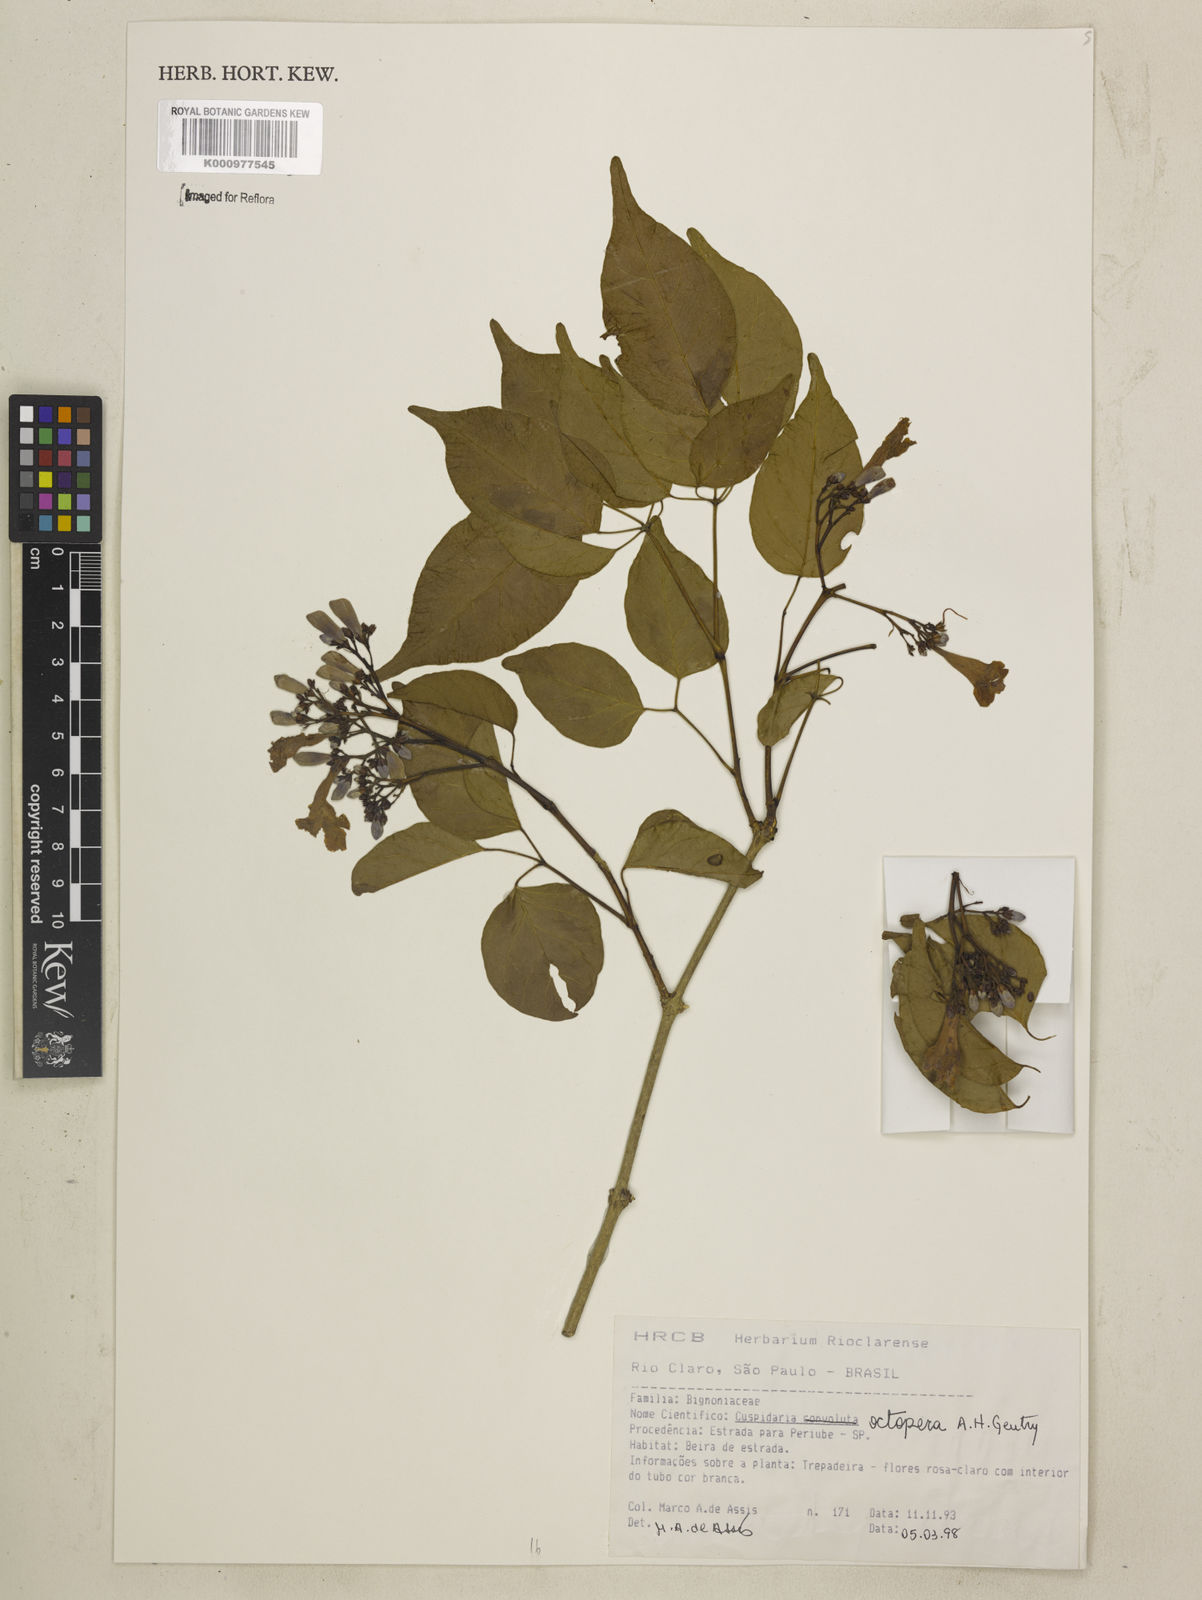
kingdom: Plantae
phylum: Tracheophyta
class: Magnoliopsida
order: Lamiales
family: Bignoniaceae
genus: Cuspidaria
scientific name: Cuspidaria octoptera
